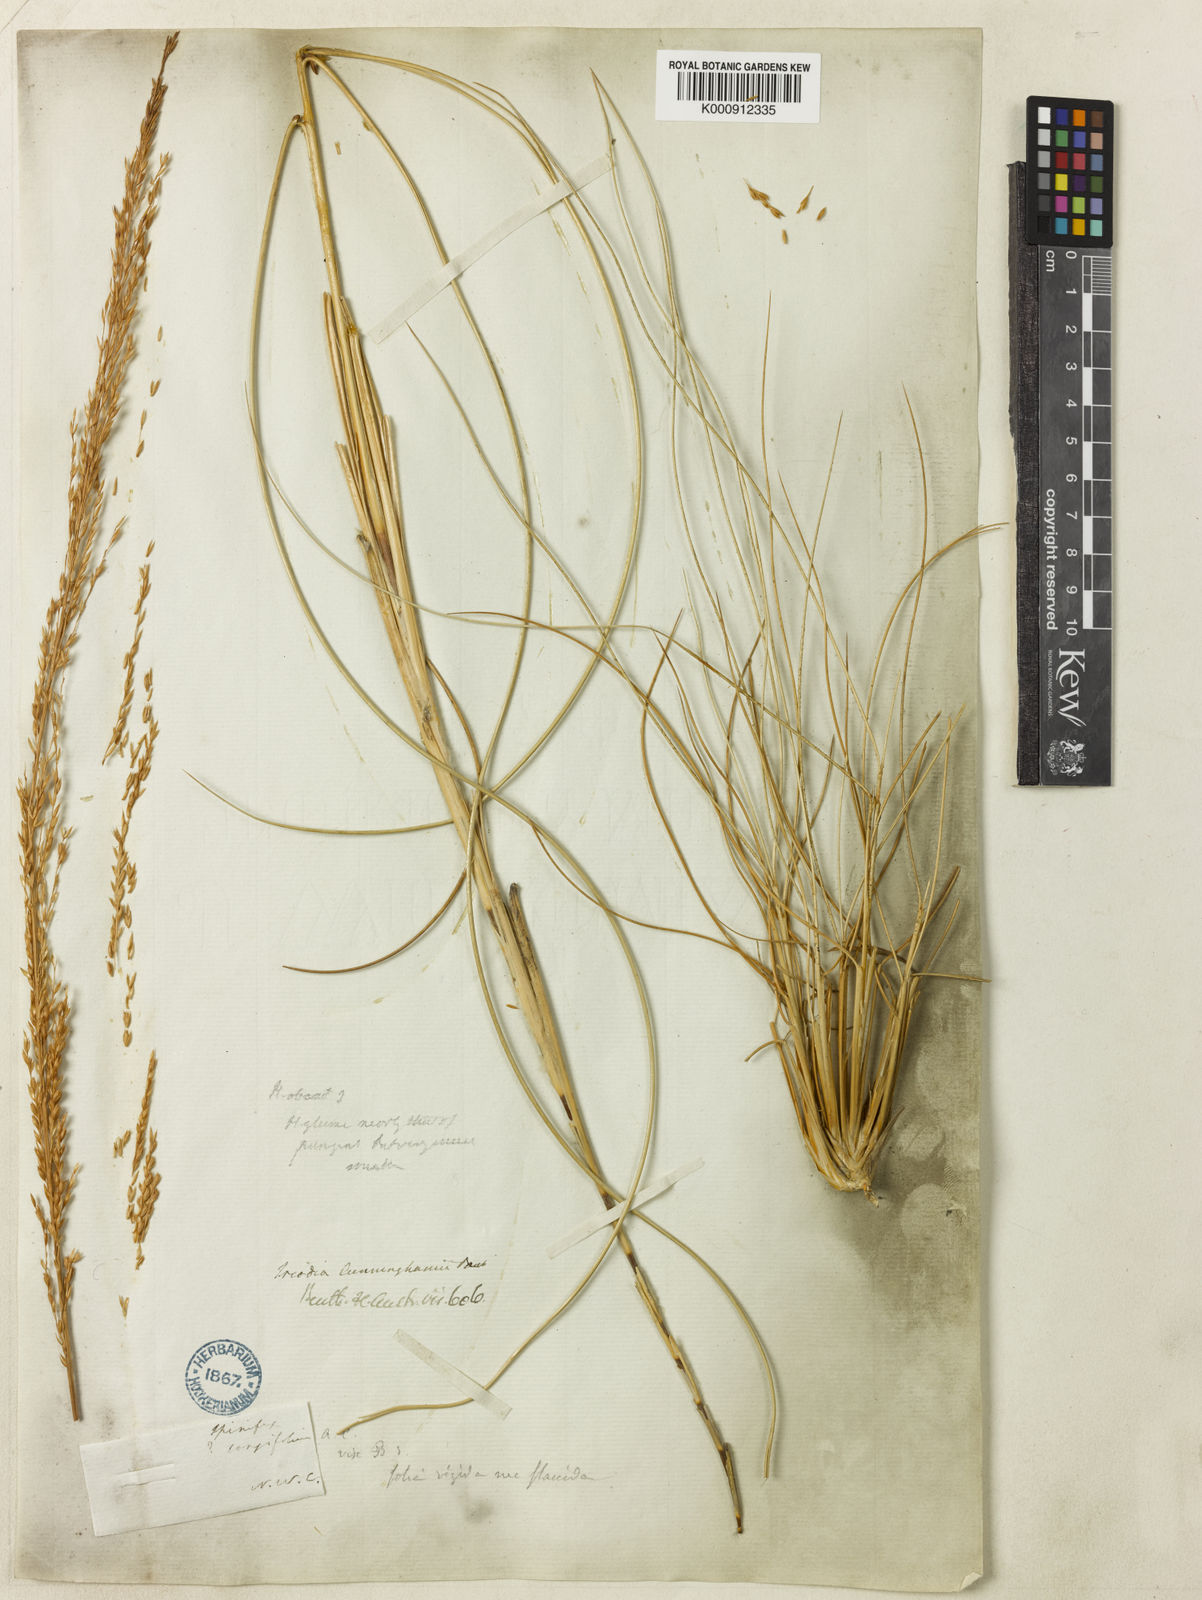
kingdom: Plantae
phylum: Tracheophyta
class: Liliopsida
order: Poales
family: Poaceae
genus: Triodia
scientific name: Triodia cunninghamii
